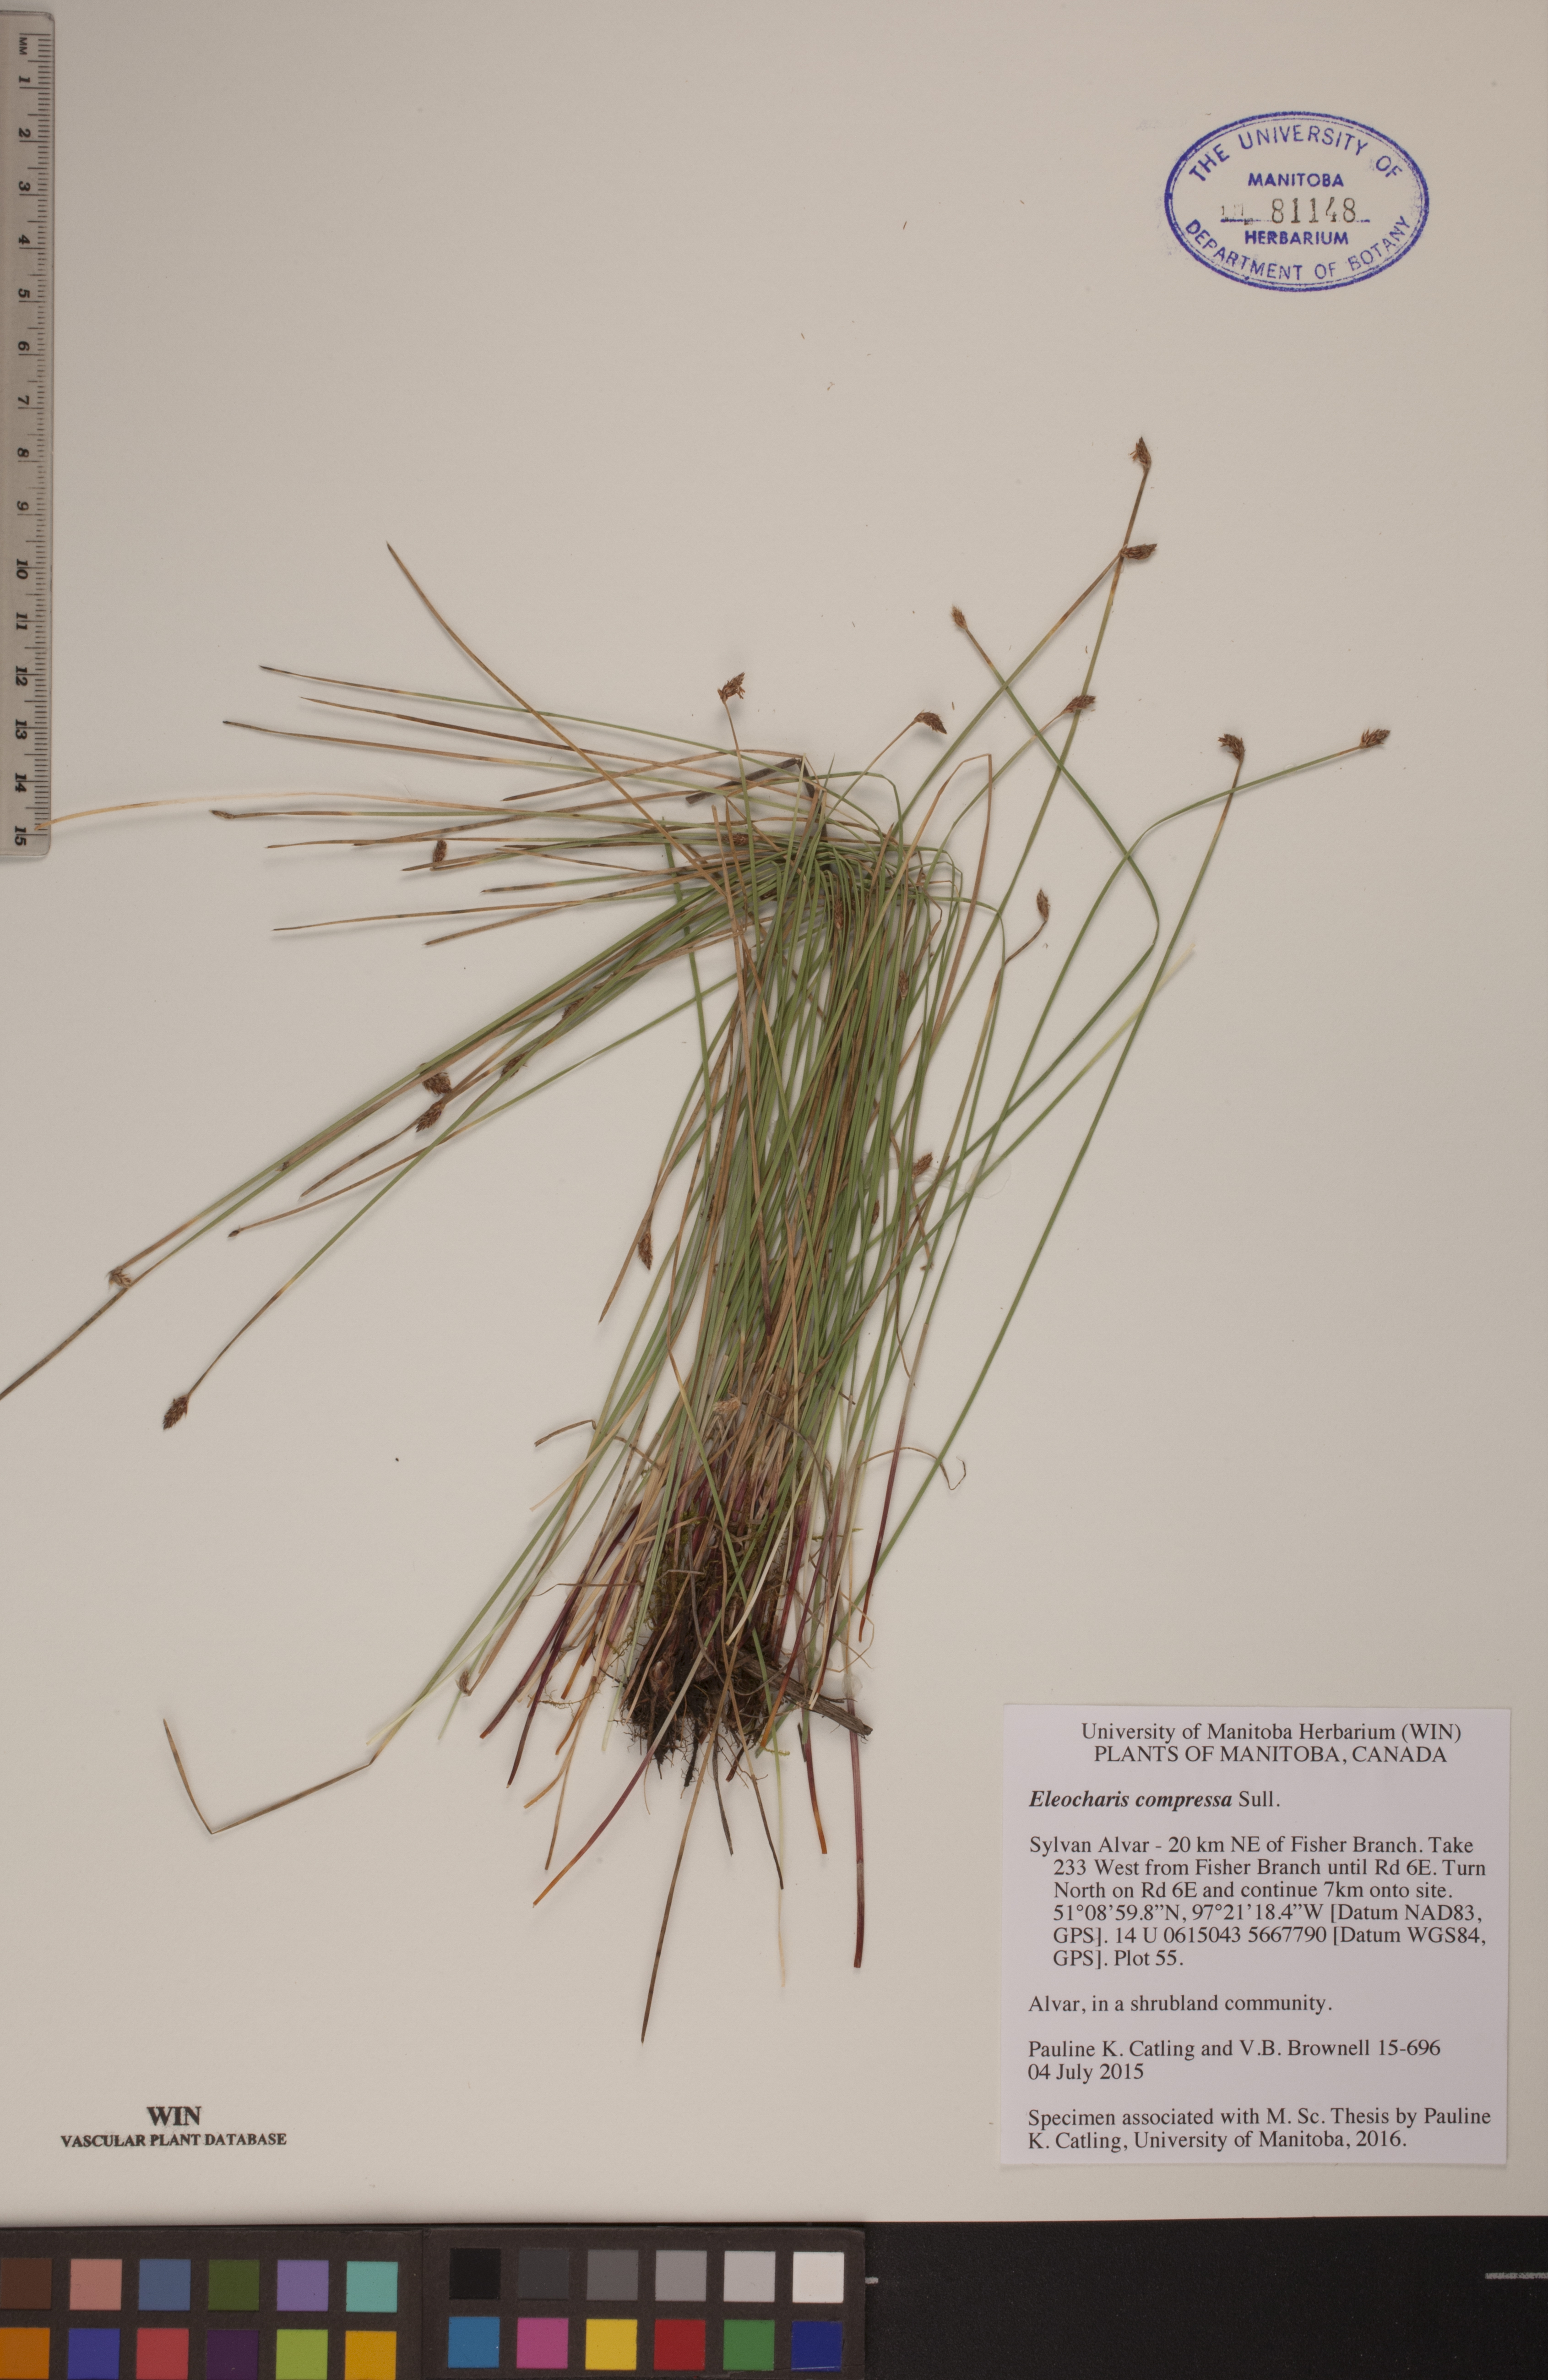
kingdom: Plantae
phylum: Tracheophyta
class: Liliopsida
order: Poales
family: Cyperaceae
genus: Eleocharis
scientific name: Eleocharis compressa
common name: Flat-stem spike-rush
